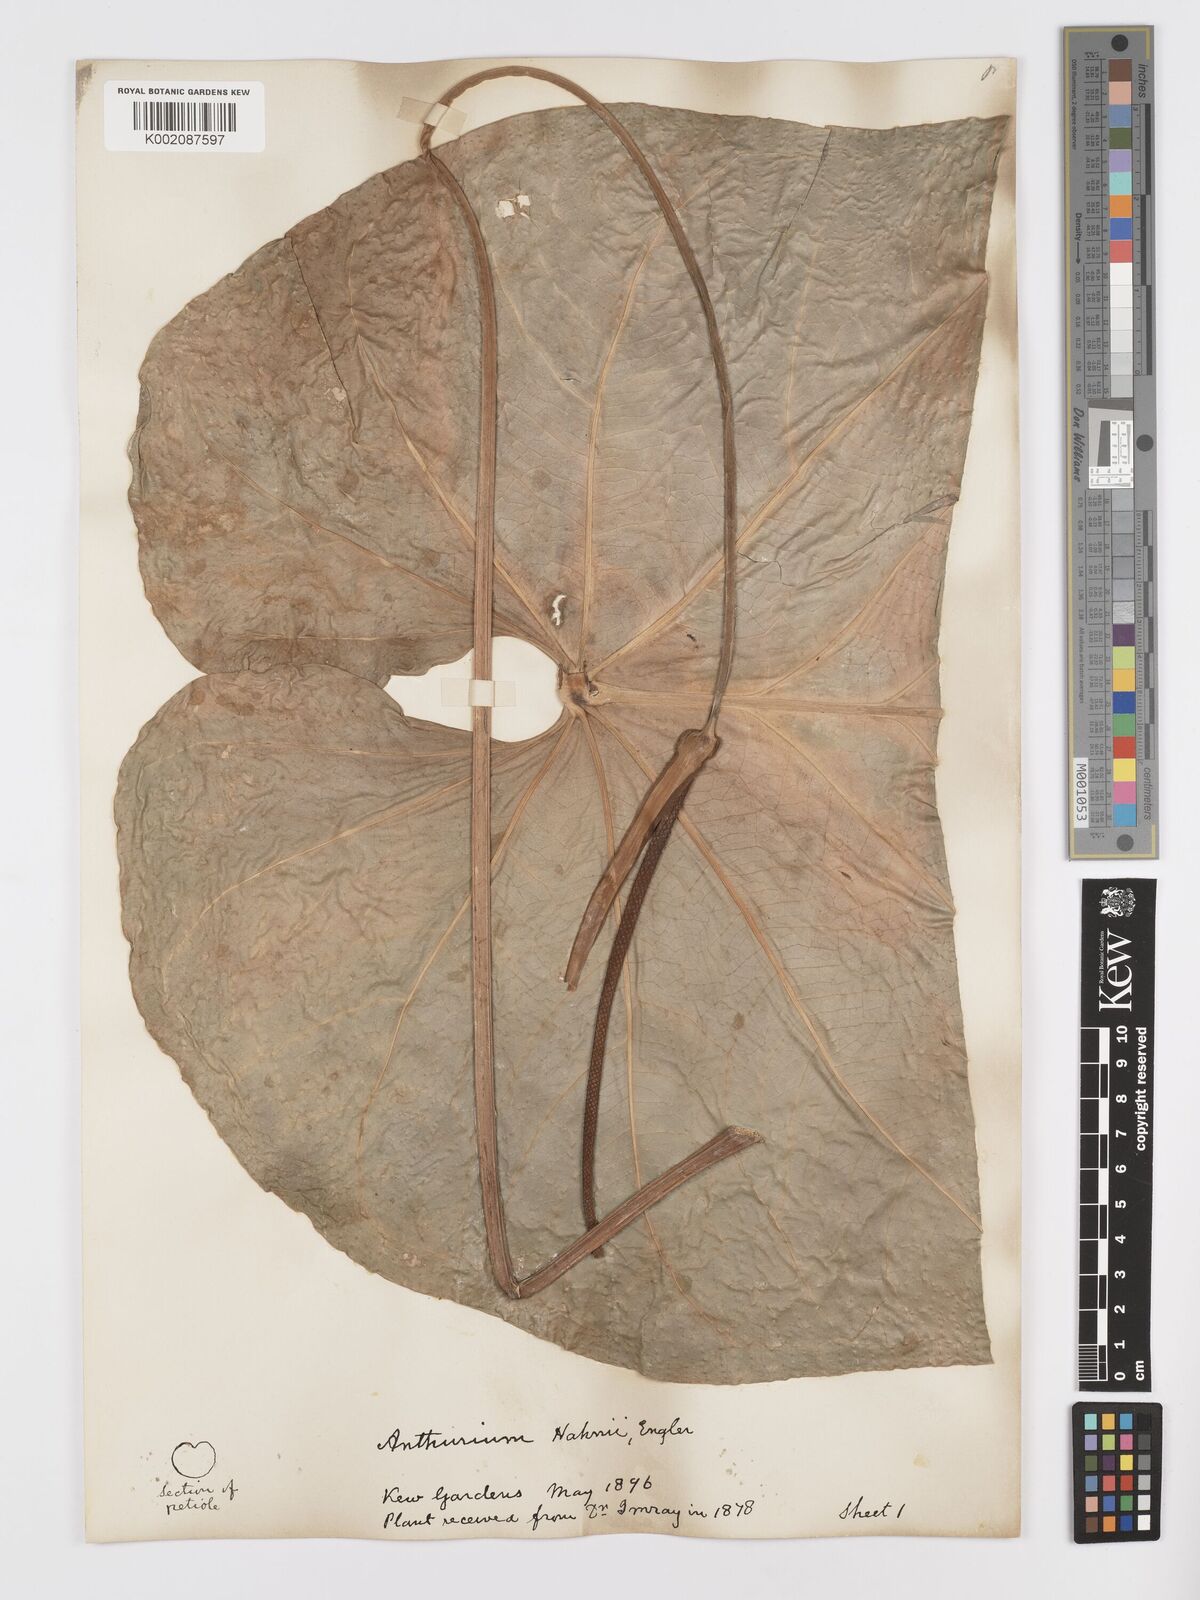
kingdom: Plantae
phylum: Tracheophyta
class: Liliopsida
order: Alismatales
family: Araceae
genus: Anthurium
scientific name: Anthurium grandifolium
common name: Monkey tail
